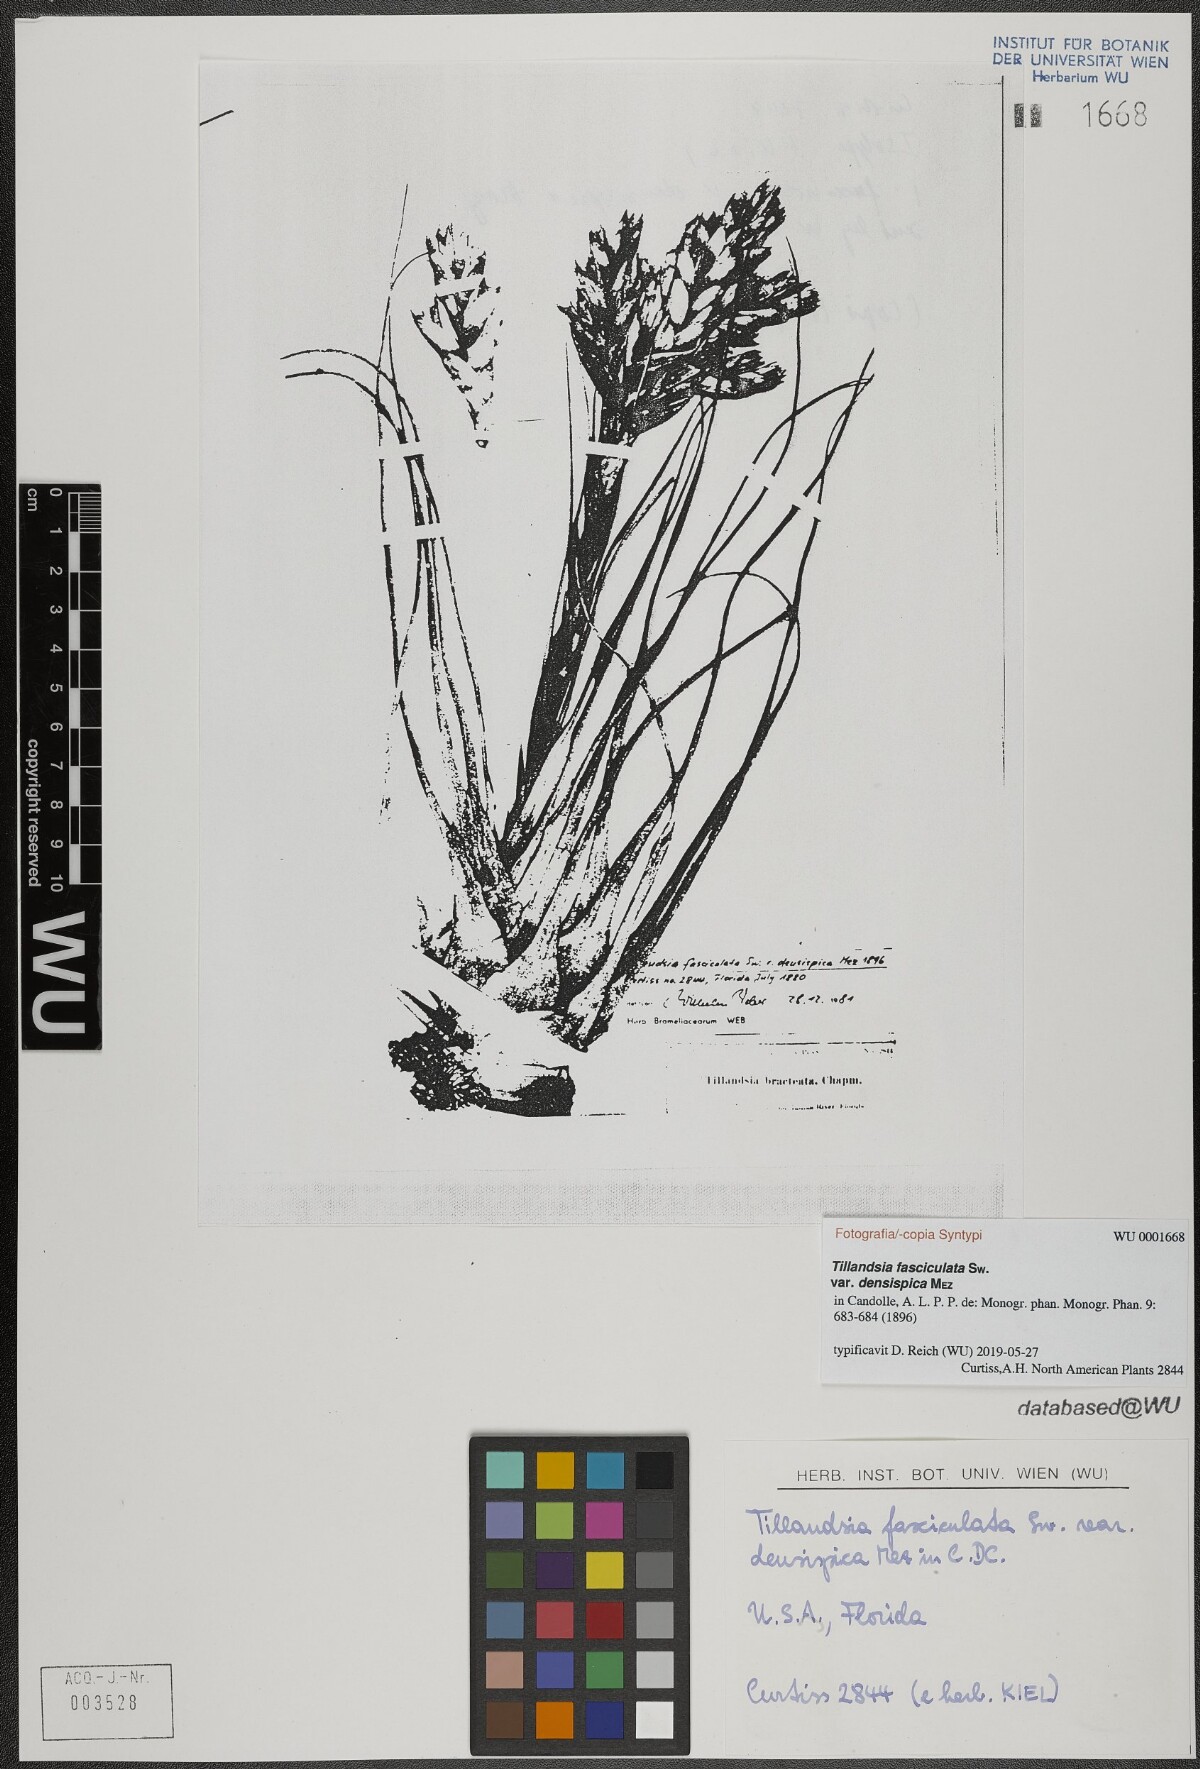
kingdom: Plantae
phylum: Tracheophyta
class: Liliopsida
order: Poales
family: Bromeliaceae
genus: Tillandsia
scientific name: Tillandsia fasciculata
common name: Giant airplant
